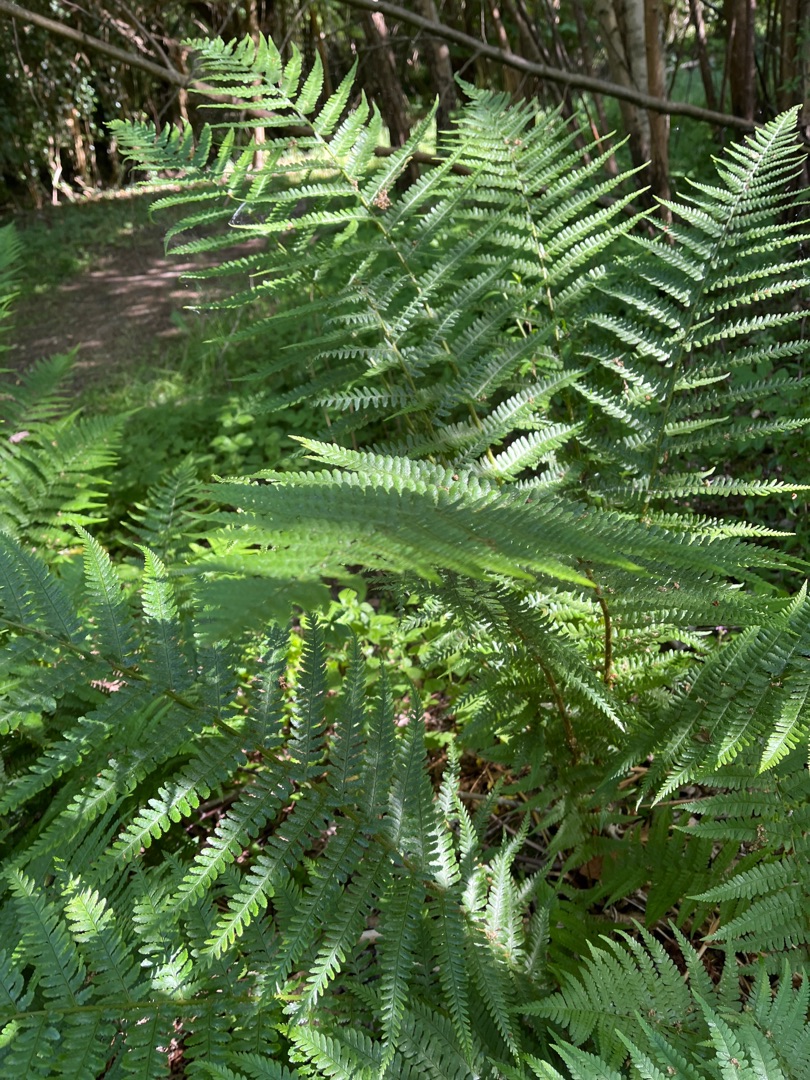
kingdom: Plantae
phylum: Tracheophyta
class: Polypodiopsida
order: Polypodiales
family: Dryopteridaceae
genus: Dryopteris
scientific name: Dryopteris filix-mas
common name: Almindelig mangeløv
